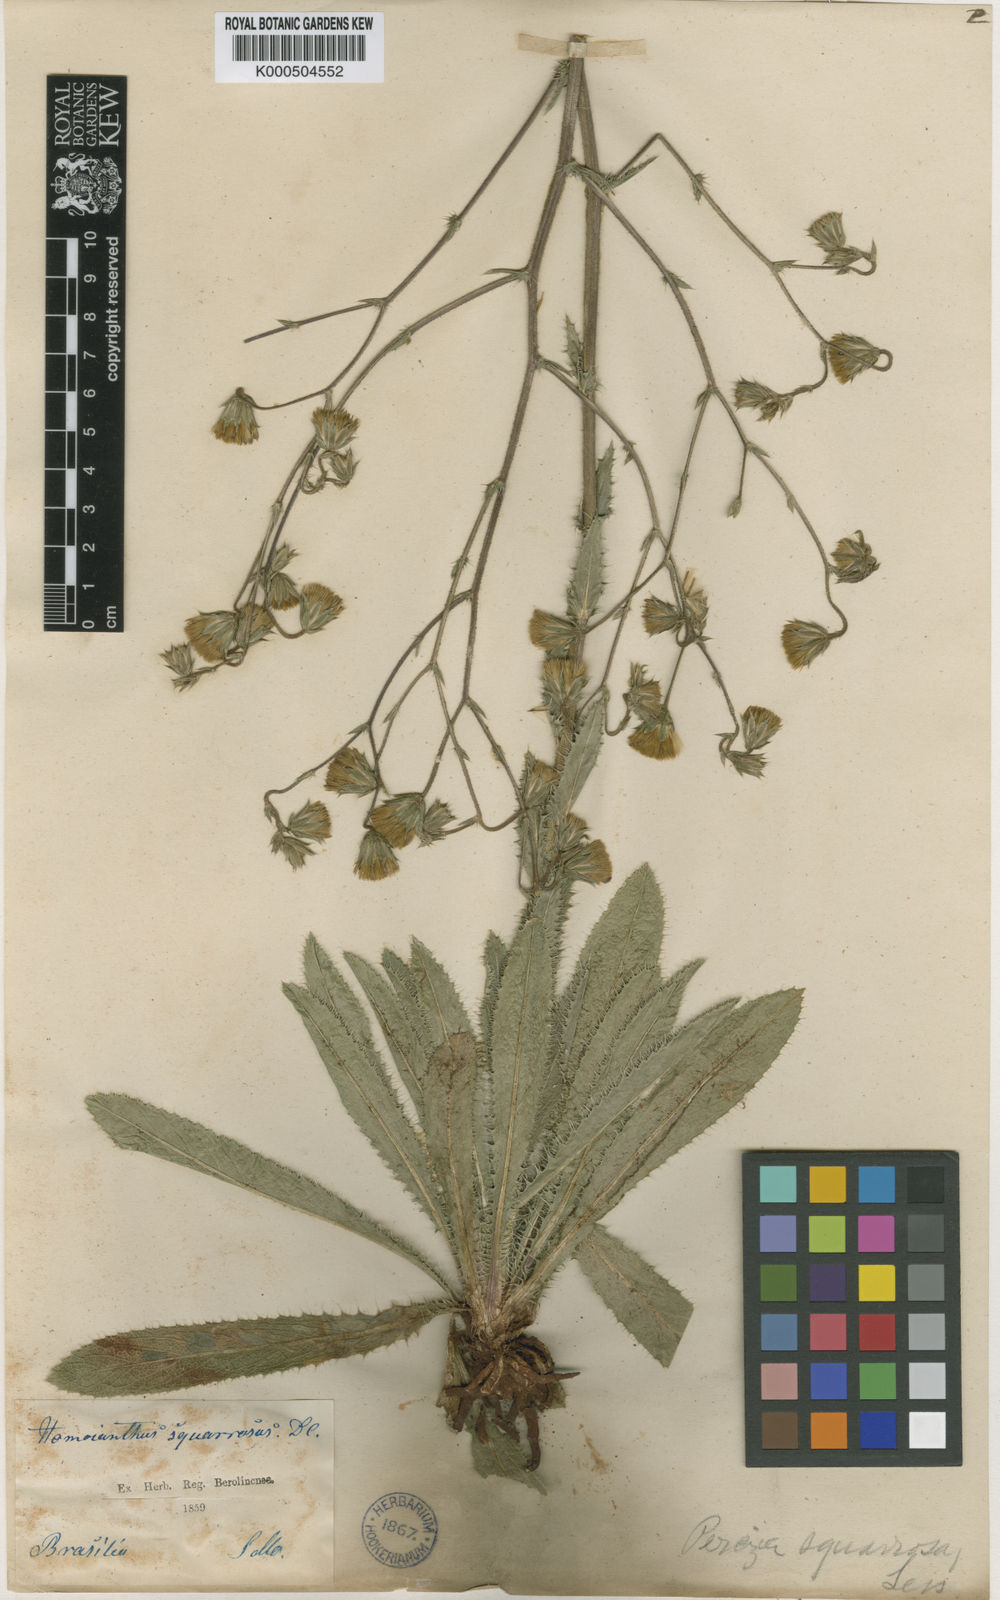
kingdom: Plantae
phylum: Tracheophyta
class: Magnoliopsida
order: Asterales
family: Asteraceae
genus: Perezia
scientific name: Perezia squarrosa
